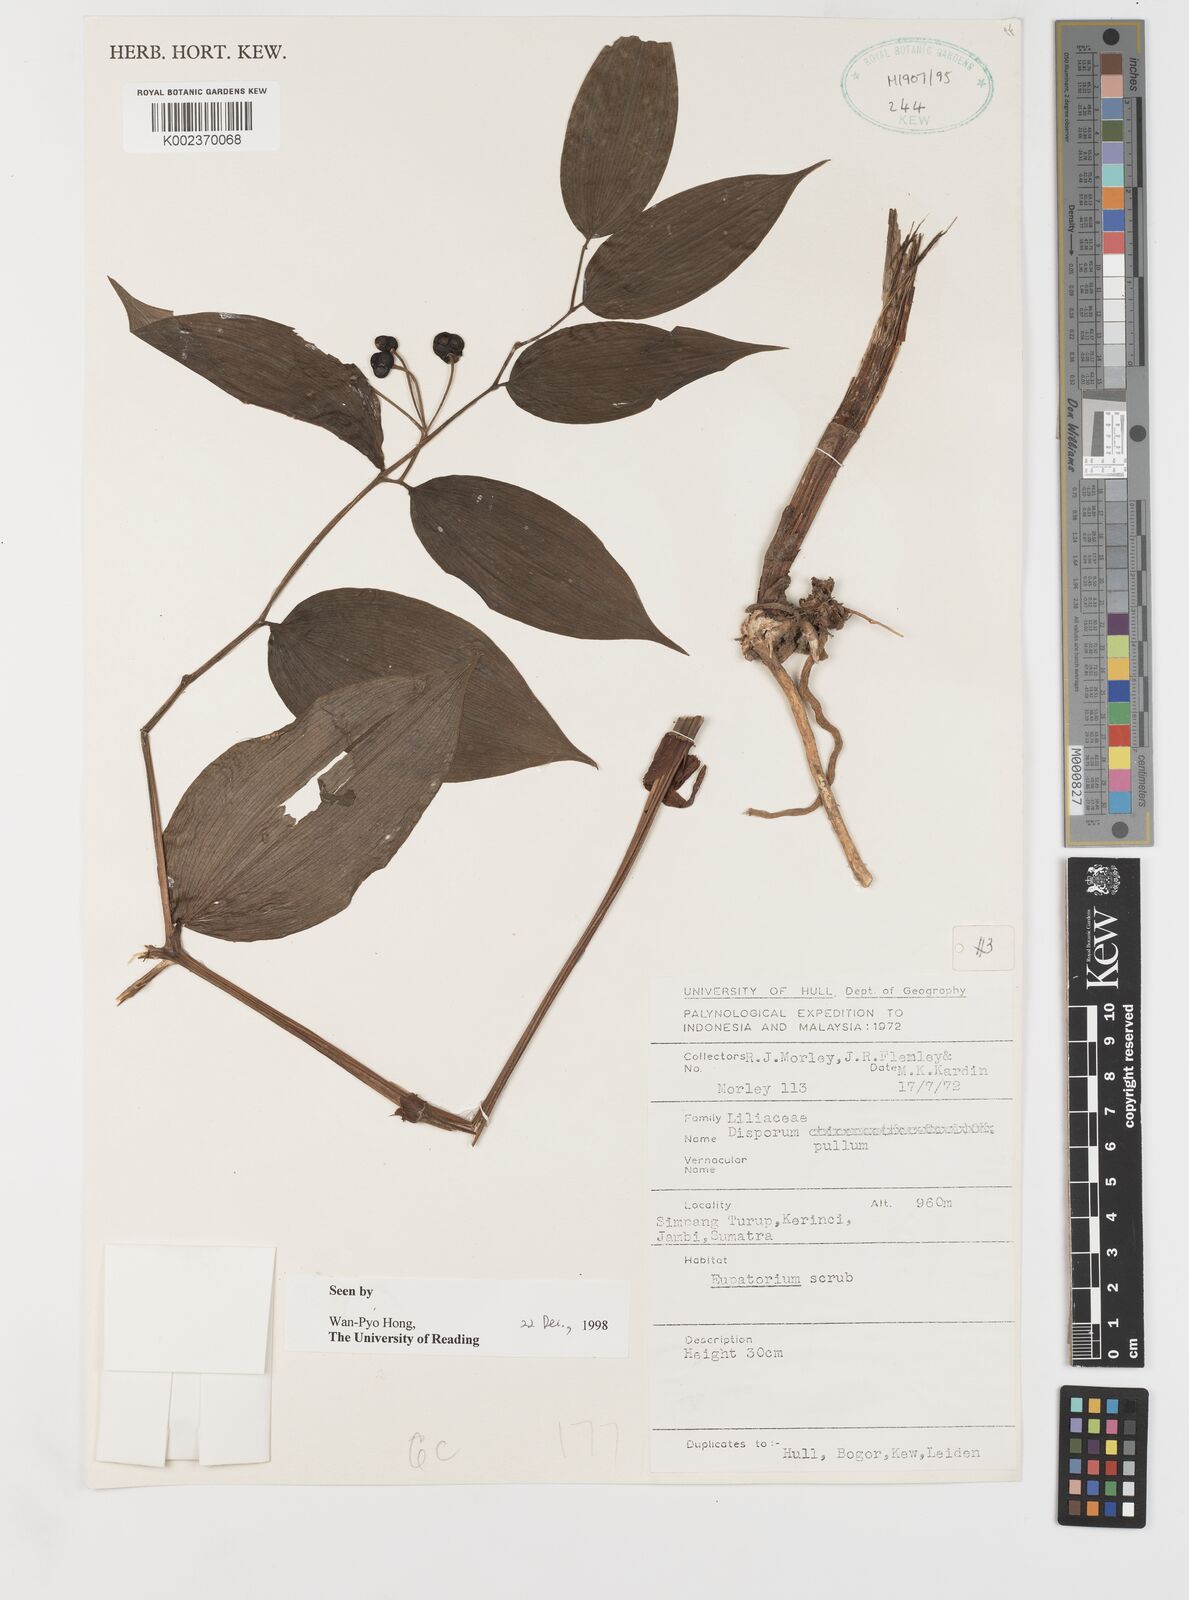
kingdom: Plantae
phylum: Tracheophyta
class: Liliopsida
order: Liliales
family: Colchicaceae
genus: Disporum
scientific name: Disporum cantoniense
